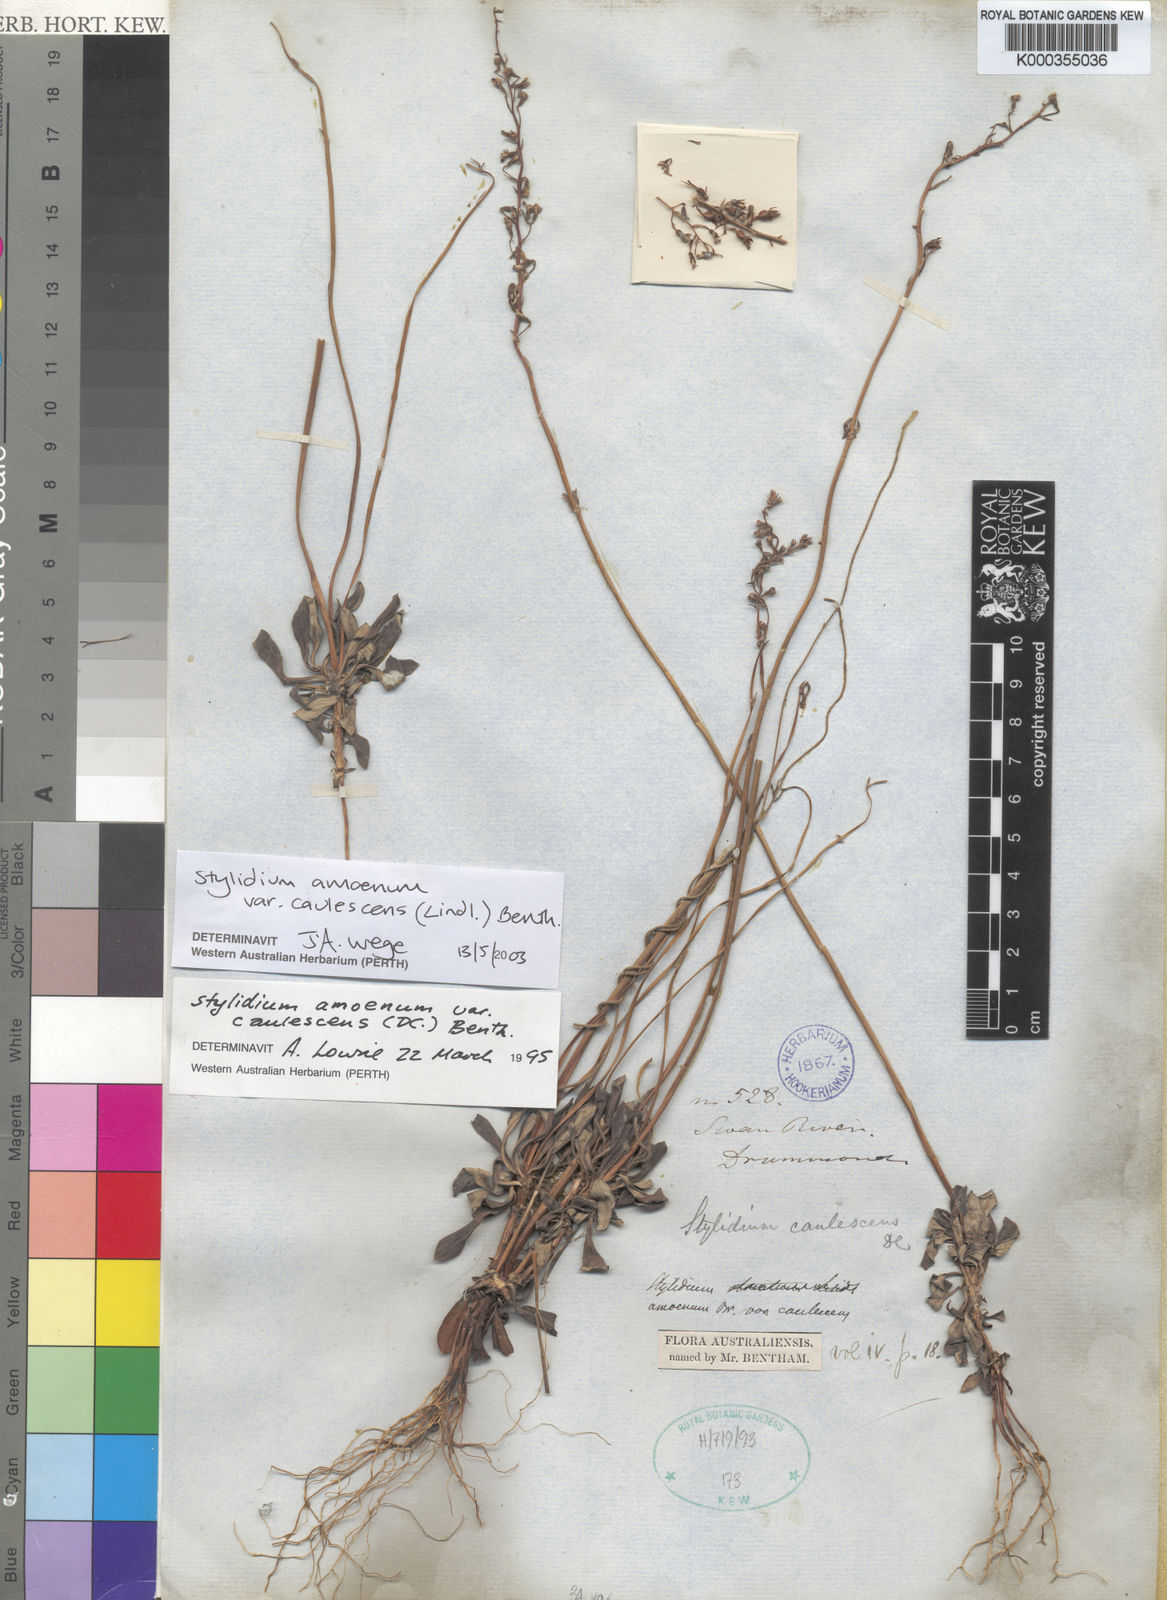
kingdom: Plantae
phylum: Tracheophyta
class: Magnoliopsida
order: Asterales
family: Stylidiaceae
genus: Stylidium
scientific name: Stylidium amoenum
